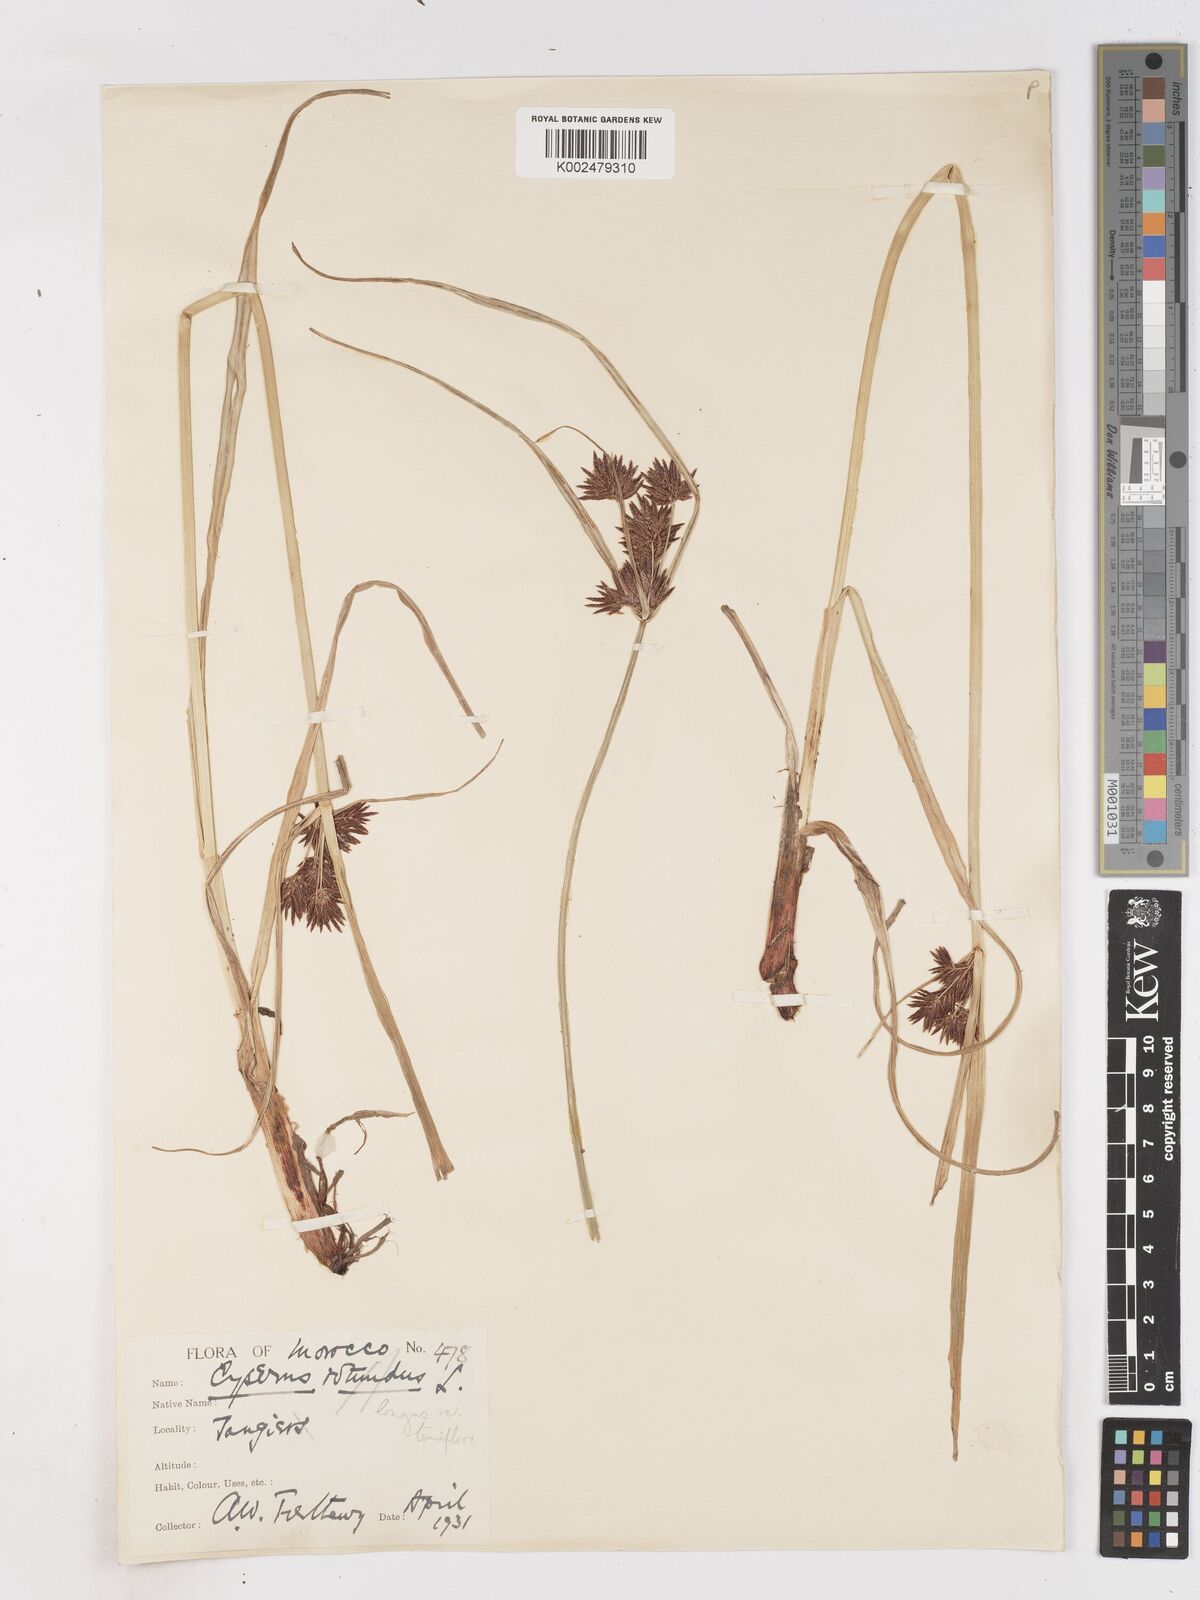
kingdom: Plantae
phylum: Tracheophyta
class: Liliopsida
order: Poales
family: Cyperaceae
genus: Cyperus
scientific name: Cyperus longus
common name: Galingale
